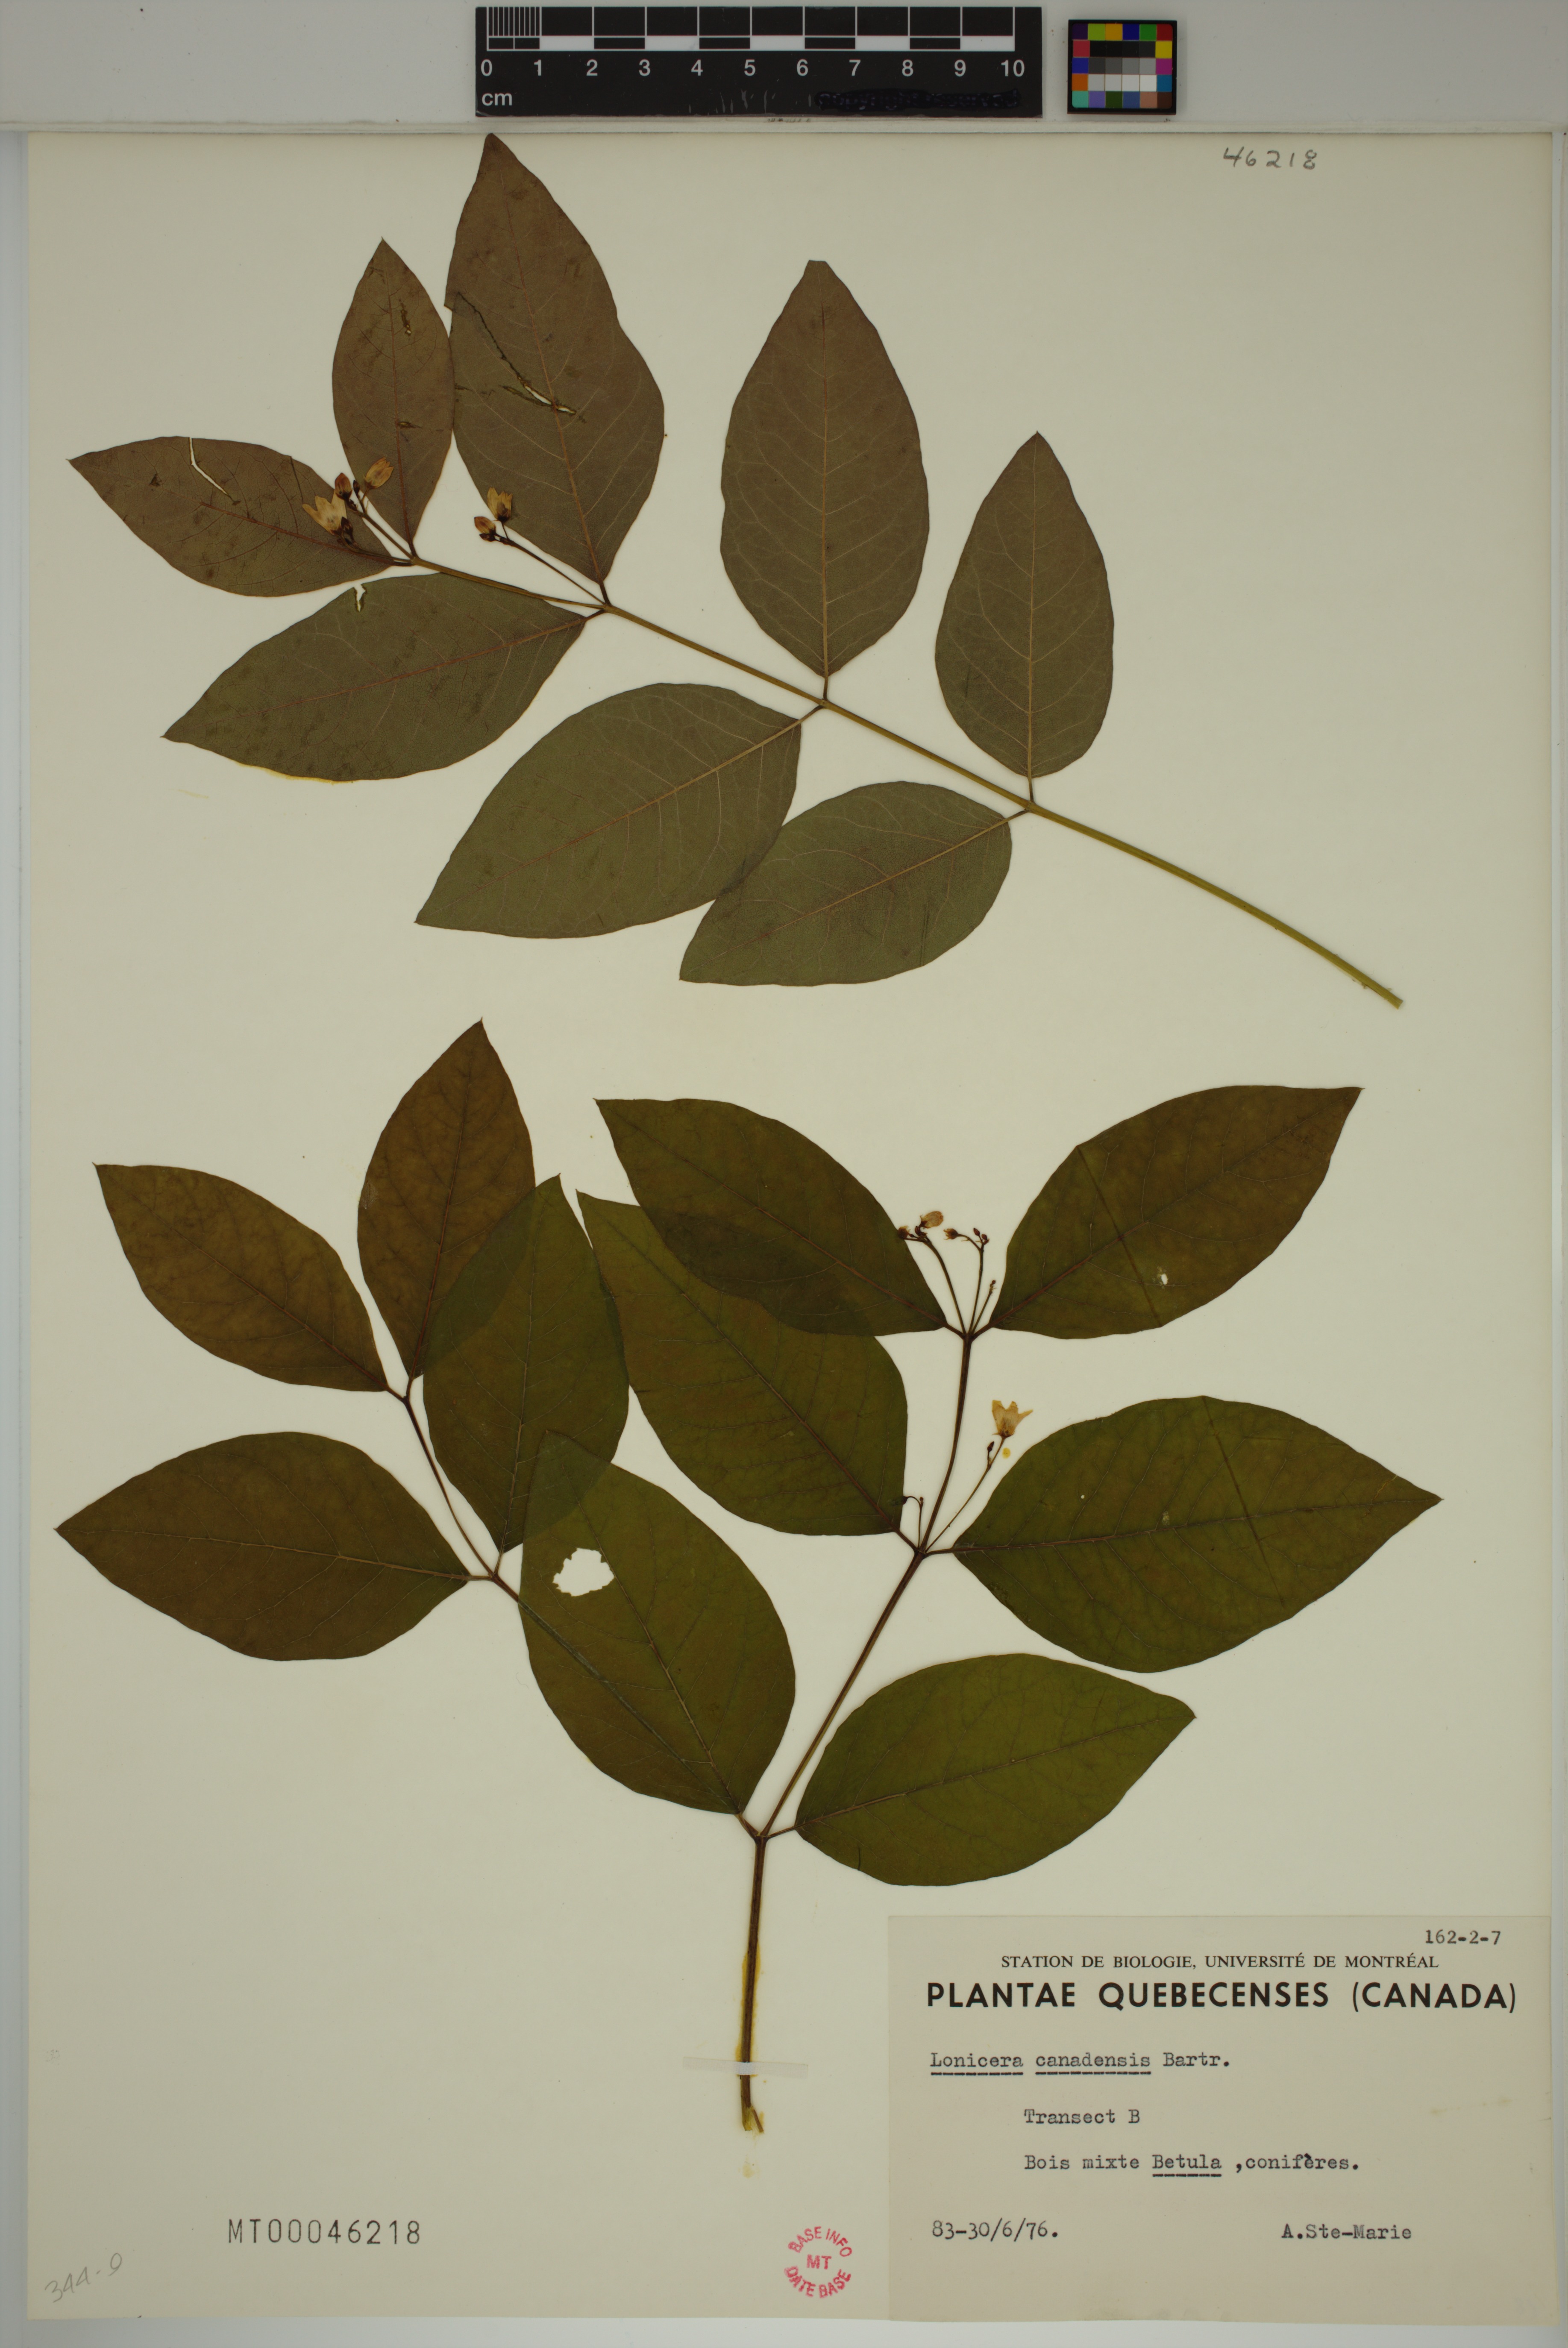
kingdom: Plantae
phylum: Tracheophyta
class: Magnoliopsida
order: Dipsacales
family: Caprifoliaceae
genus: Lonicera
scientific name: Lonicera canadensis
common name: American fly-honeysuckle
